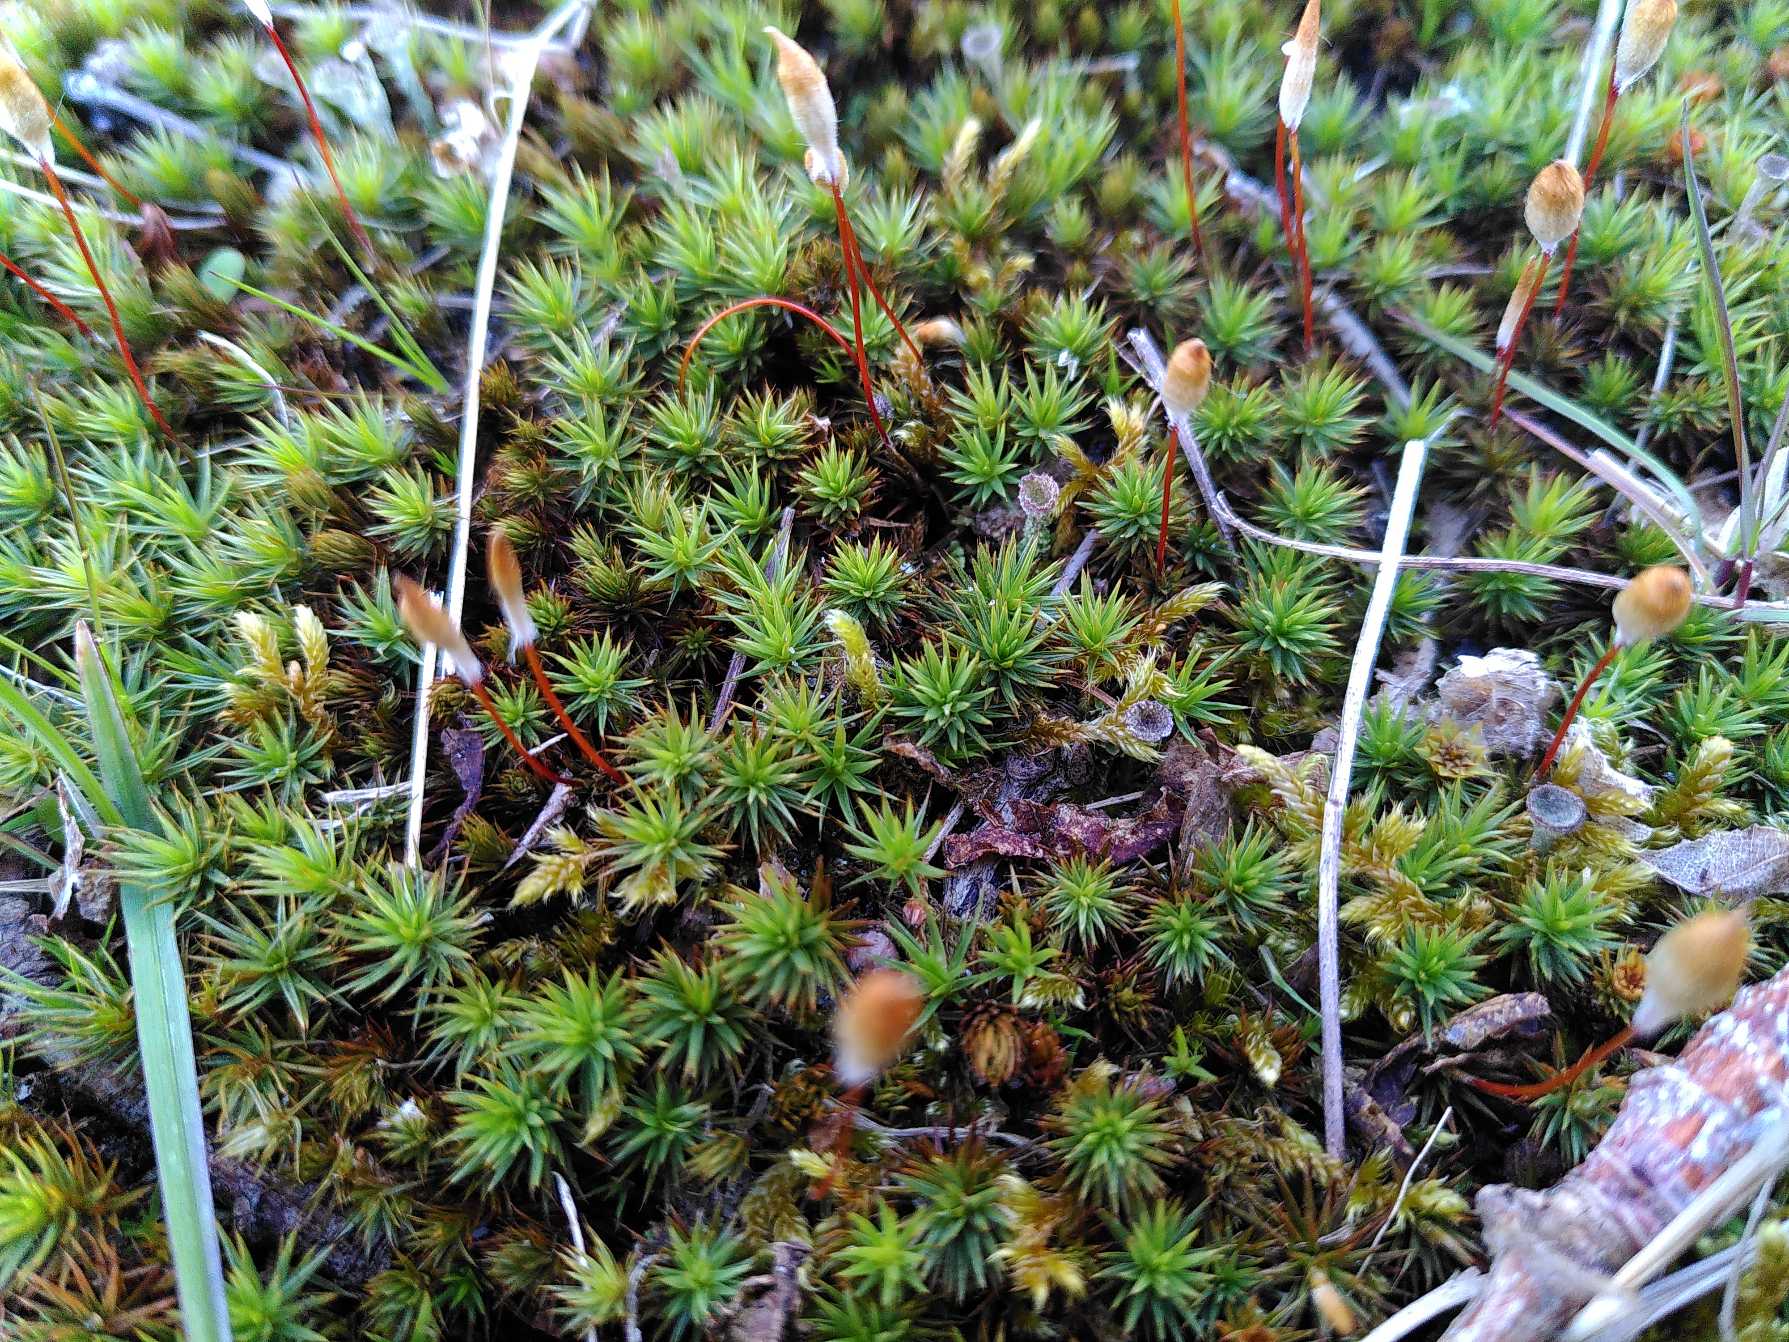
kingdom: Plantae
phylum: Bryophyta
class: Polytrichopsida
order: Polytrichales
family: Polytrichaceae
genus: Polytrichum
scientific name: Polytrichum juniperinum
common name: Ene-jomfruhår
